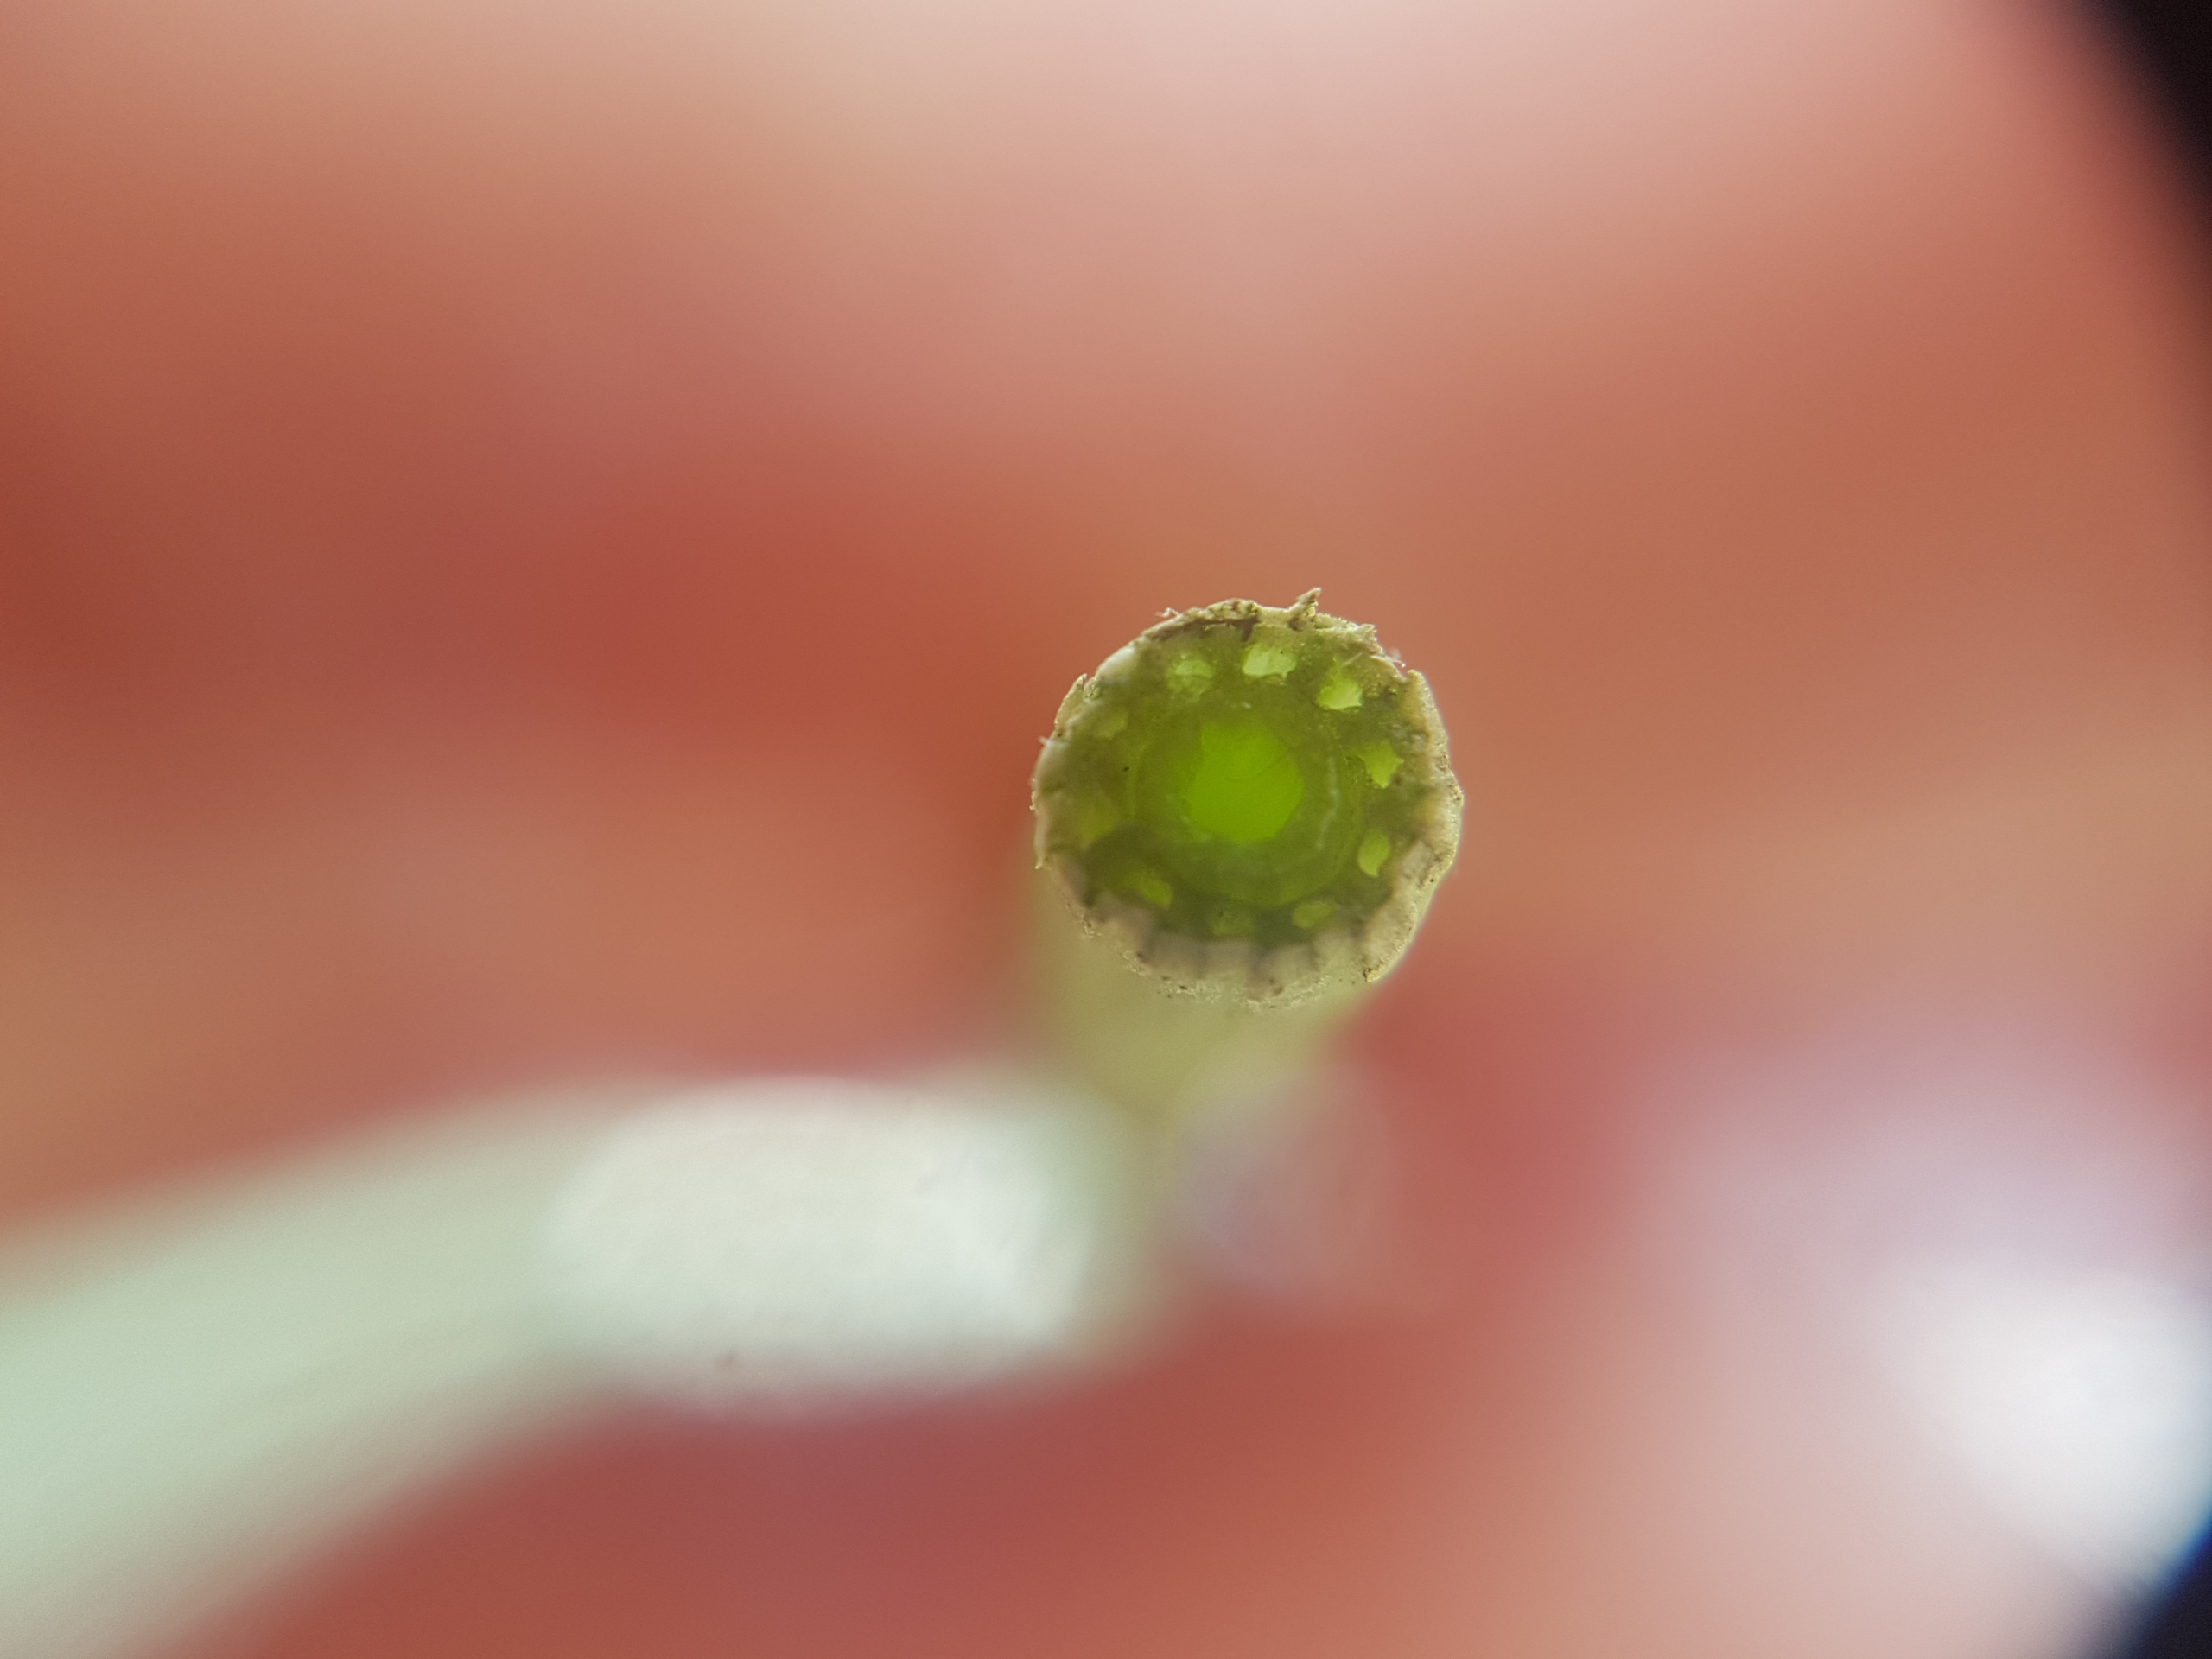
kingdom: Plantae
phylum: Tracheophyta
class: Polypodiopsida
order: Equisetales
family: Equisetaceae
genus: Equisetum
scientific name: Equisetum arvense
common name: Ager-padderok
